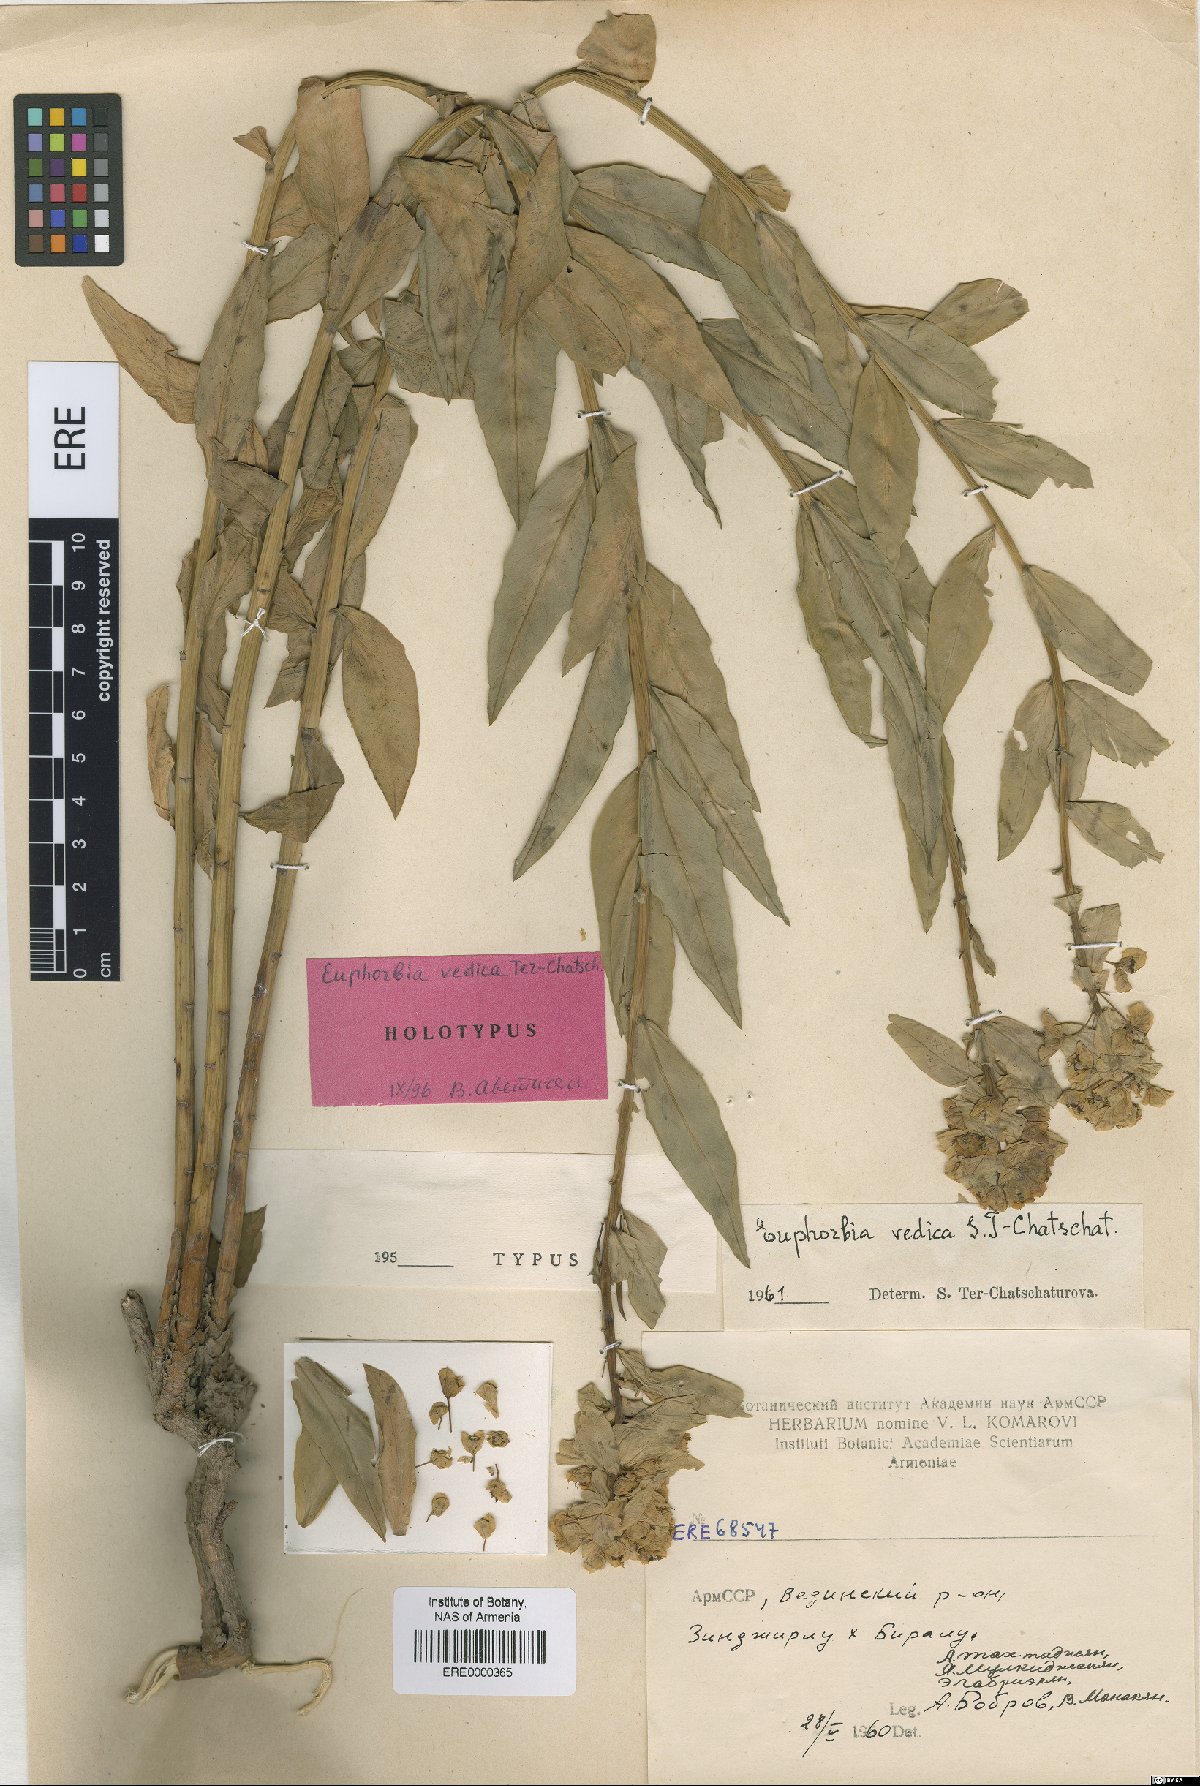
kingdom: Plantae
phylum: Tracheophyta
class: Magnoliopsida
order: Malpighiales
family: Euphorbiaceae
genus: Euphorbia
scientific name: Euphorbia iberica
